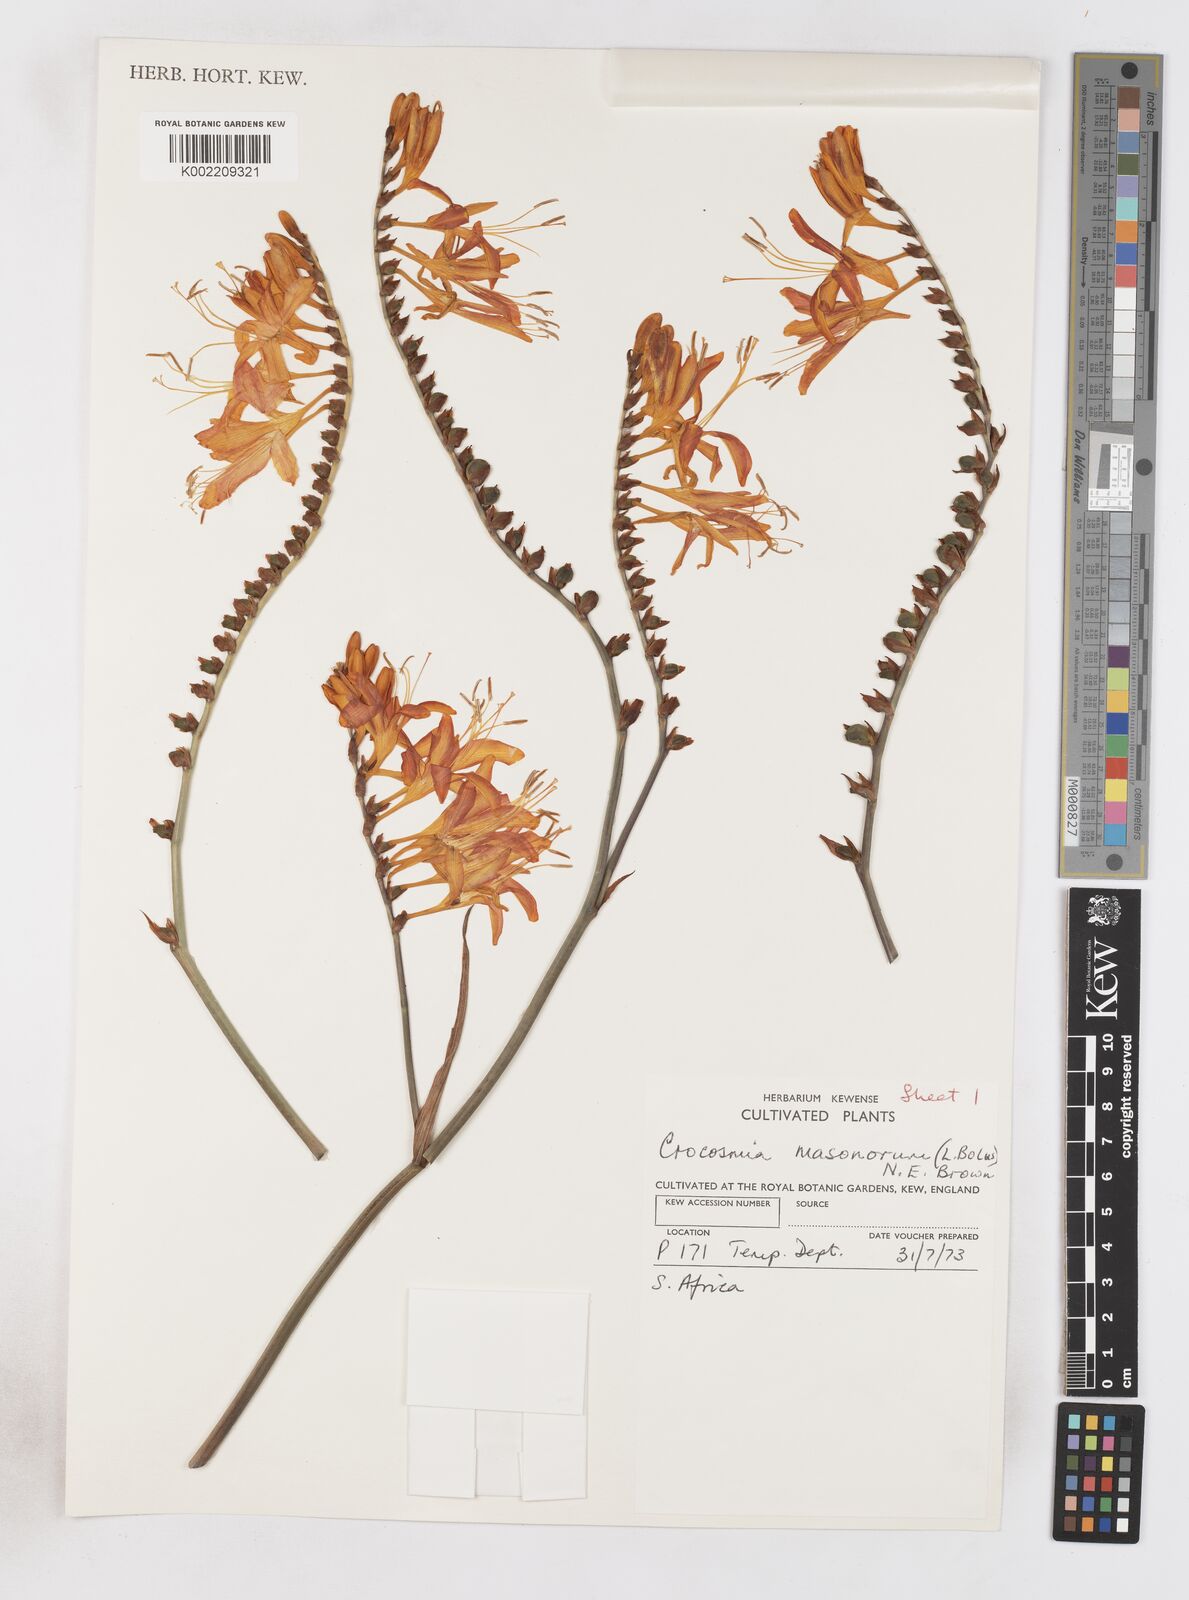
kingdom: Plantae
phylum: Tracheophyta
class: Liliopsida
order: Asparagales
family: Iridaceae
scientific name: Iridaceae
